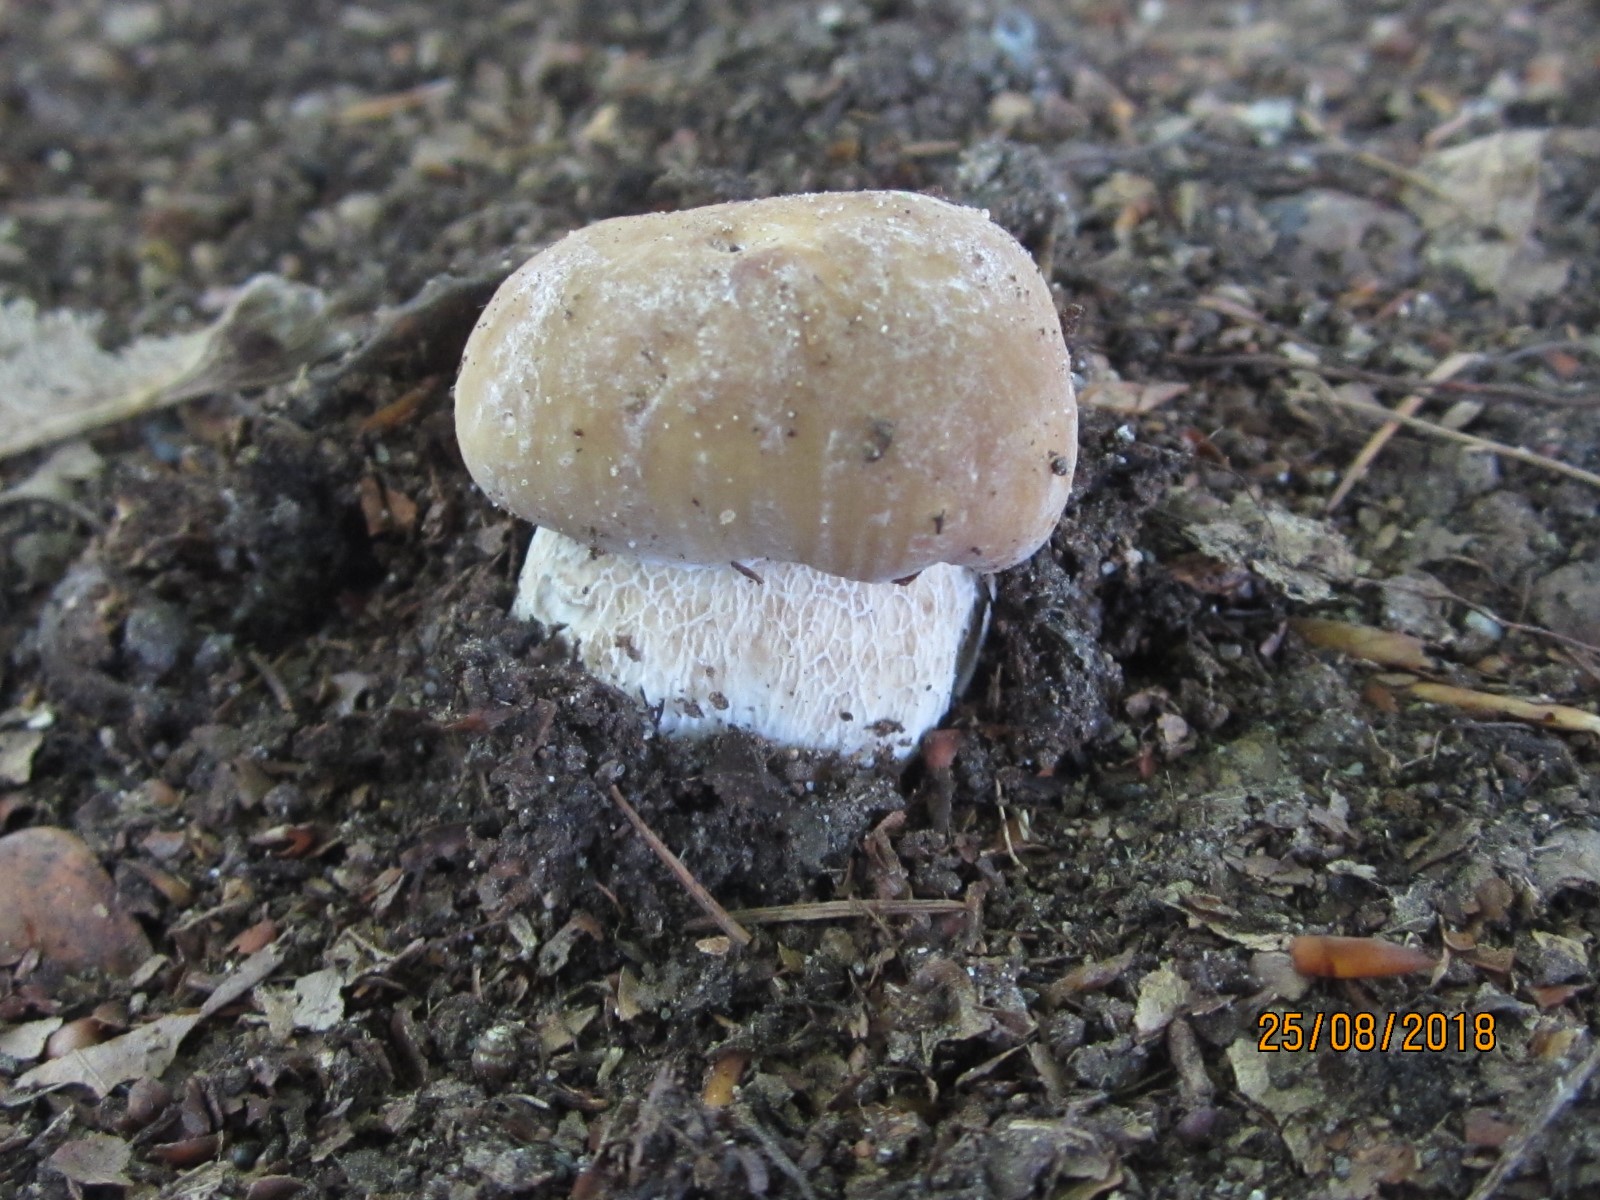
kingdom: Fungi
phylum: Basidiomycota
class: Agaricomycetes
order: Boletales
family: Boletaceae
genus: Boletus
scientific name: Boletus edulis
